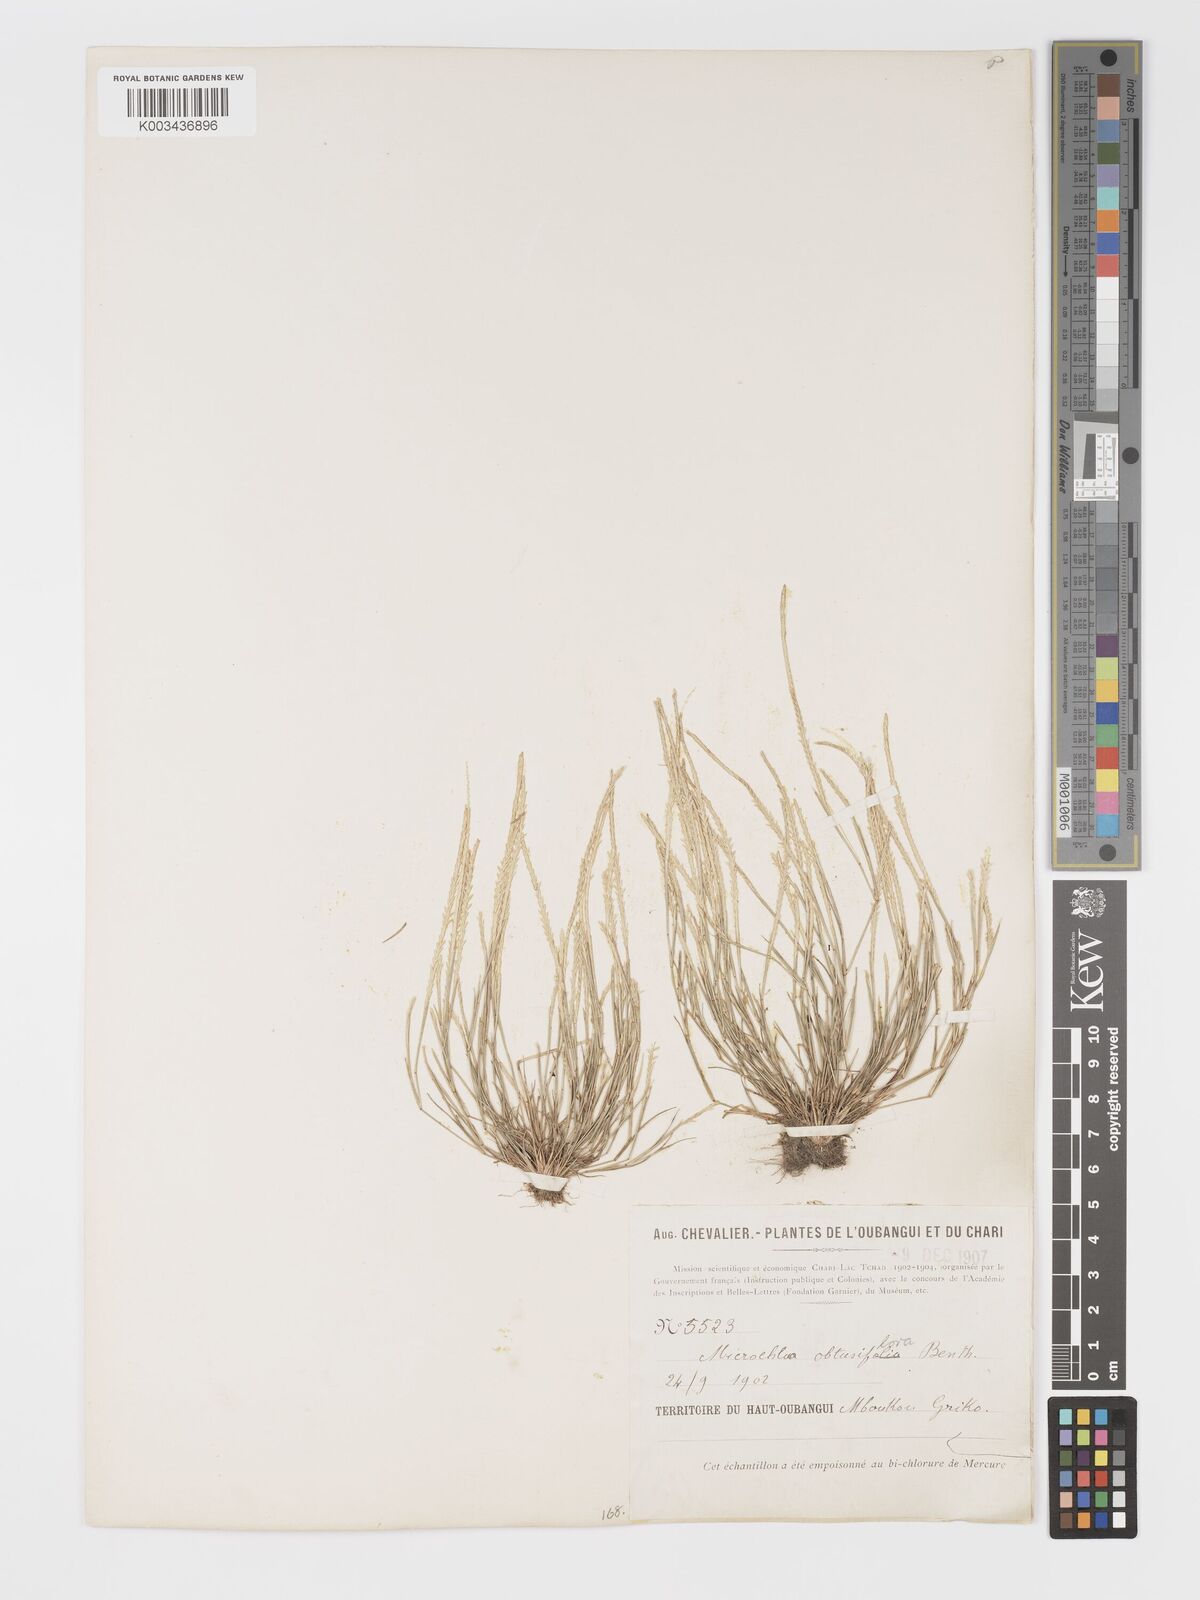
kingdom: Plantae
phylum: Tracheophyta
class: Liliopsida
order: Poales
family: Poaceae
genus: Micrachne
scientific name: Micrachne obtusiflora
